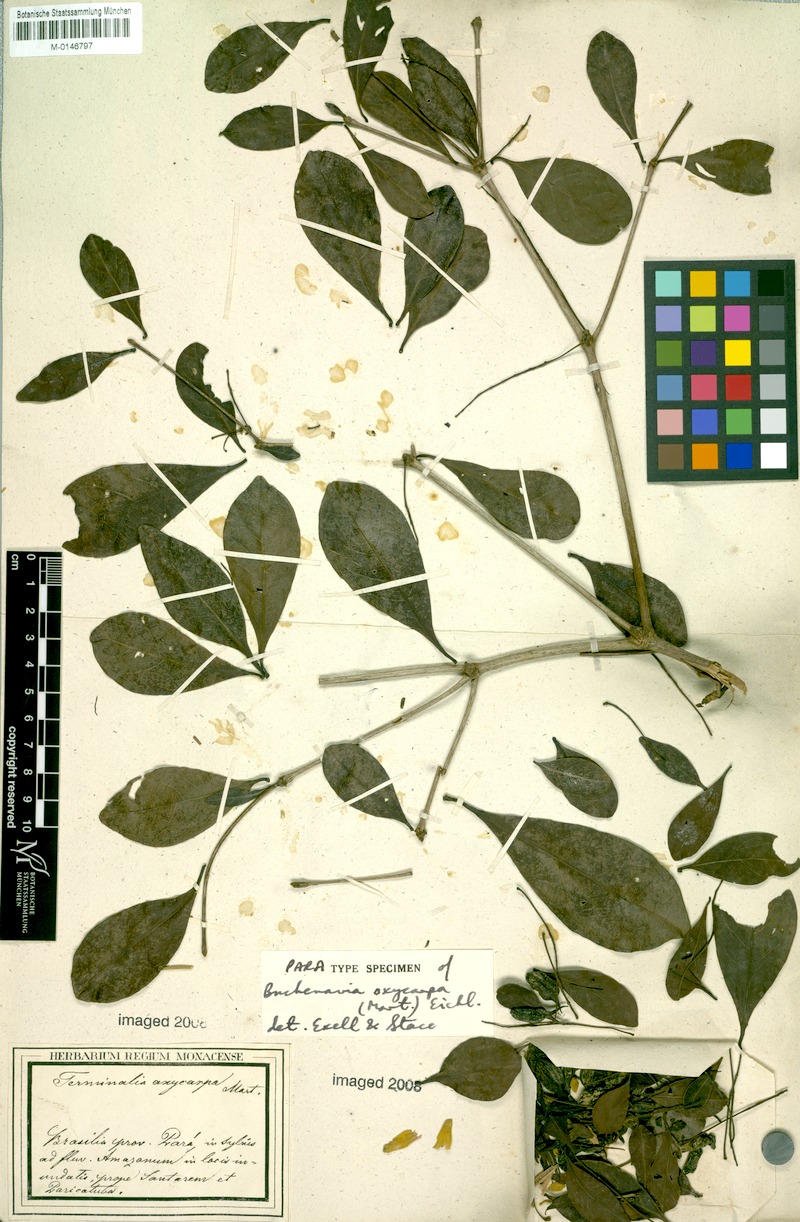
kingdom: Plantae
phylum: Tracheophyta
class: Magnoliopsida
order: Myrtales
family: Combretaceae
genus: Terminalia
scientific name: Terminalia oxycarpa
